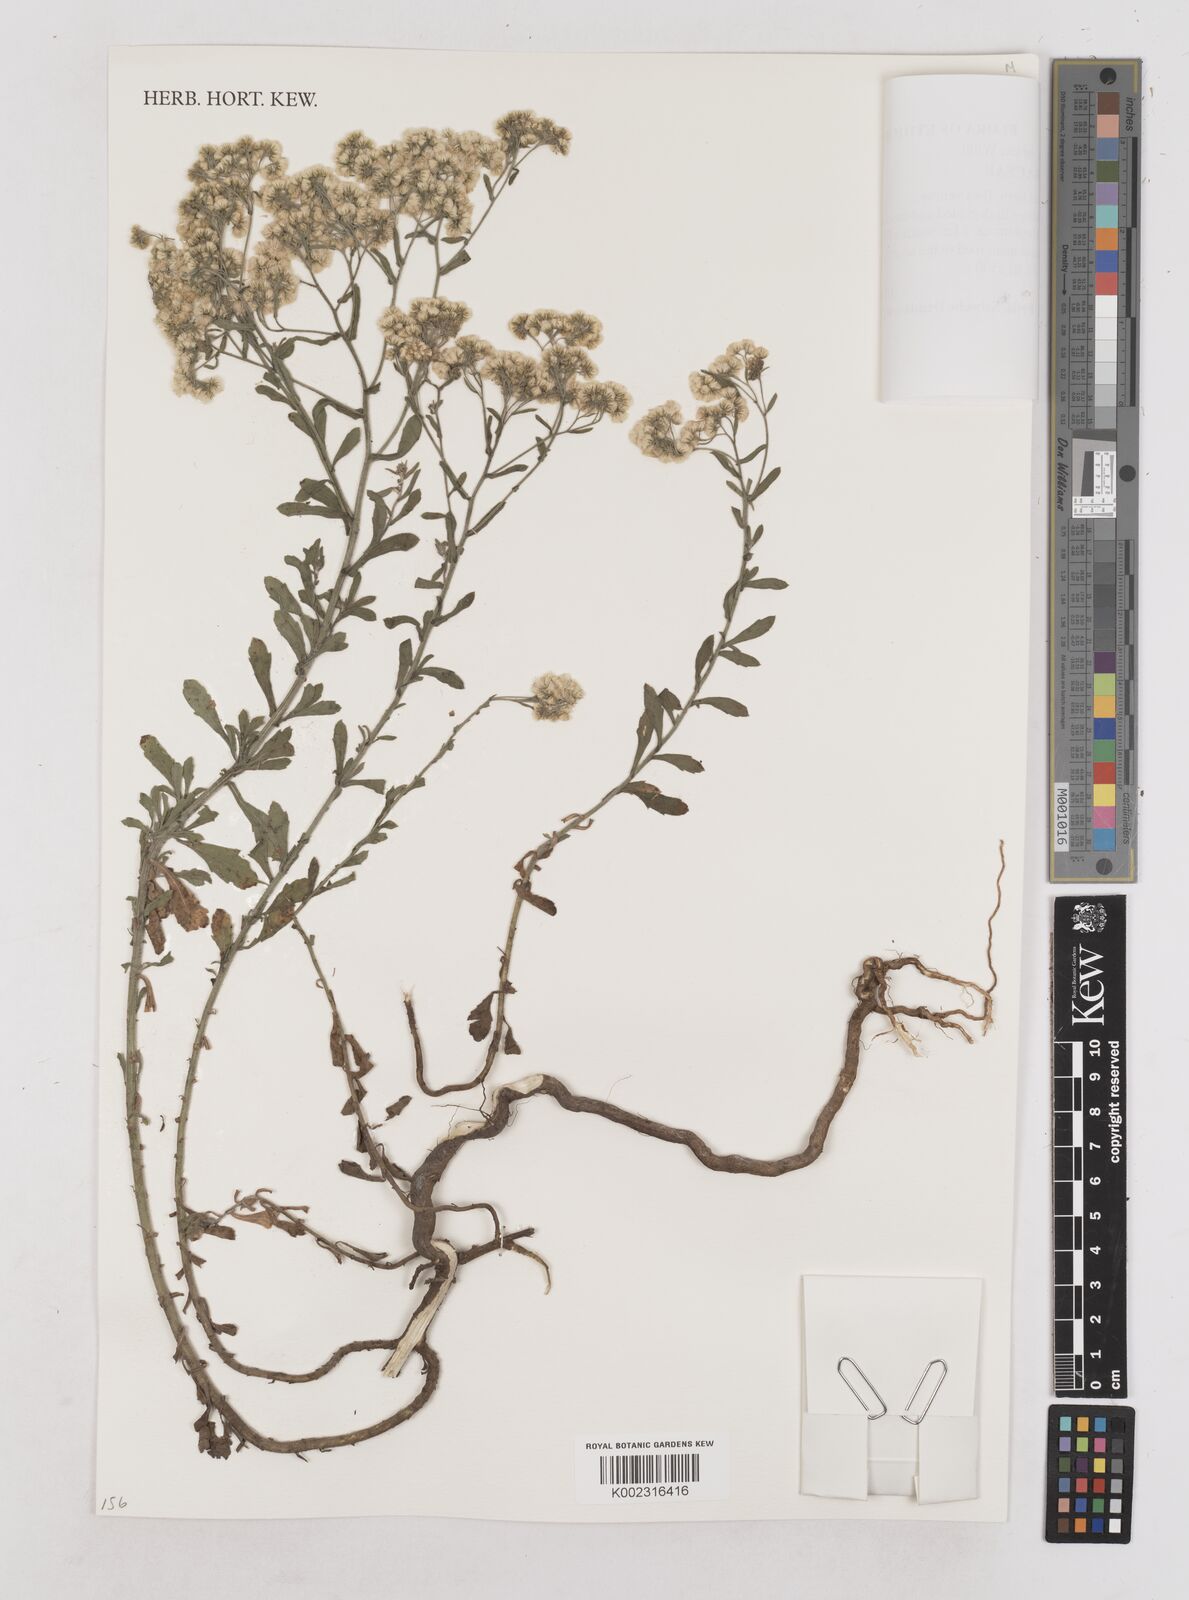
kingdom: Plantae
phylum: Tracheophyta
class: Magnoliopsida
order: Asterales
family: Asteraceae
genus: Nidorella
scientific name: Nidorella triloba
